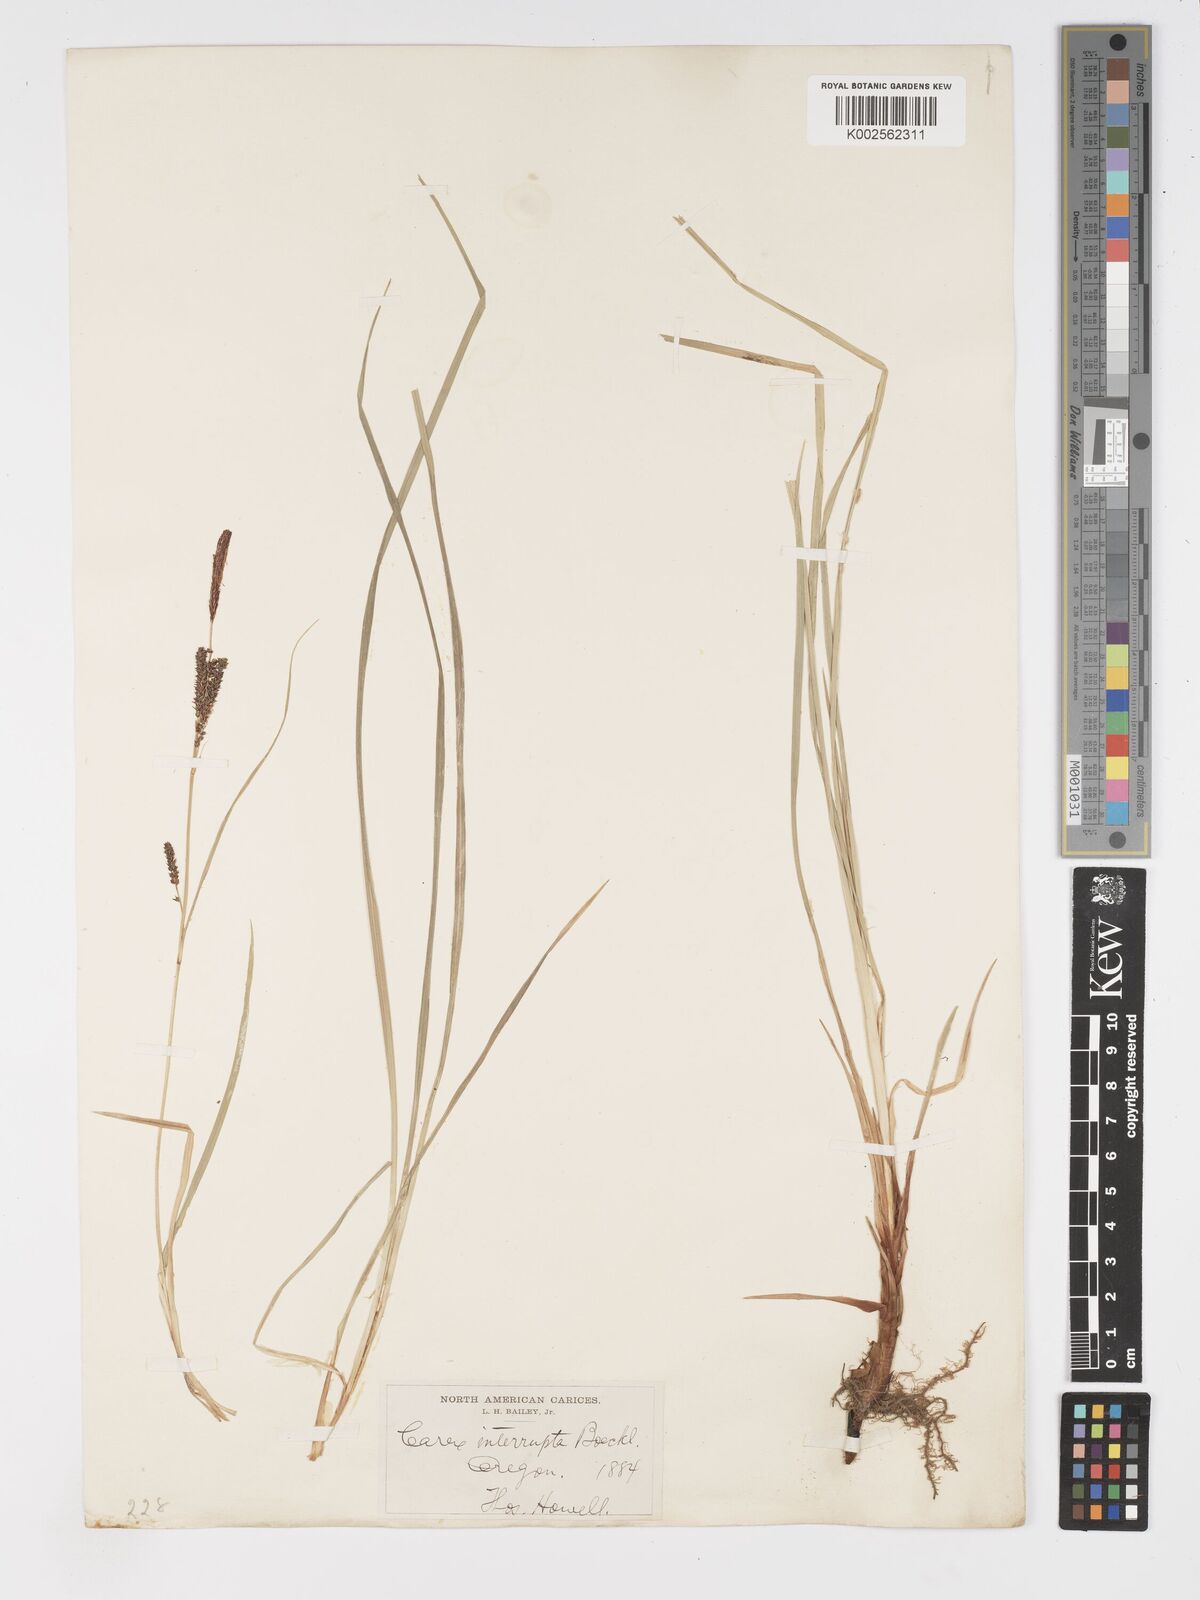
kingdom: Plantae
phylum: Tracheophyta
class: Liliopsida
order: Poales
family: Cyperaceae
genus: Carex
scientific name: Carex interrupta
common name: Green-fruited sedge
